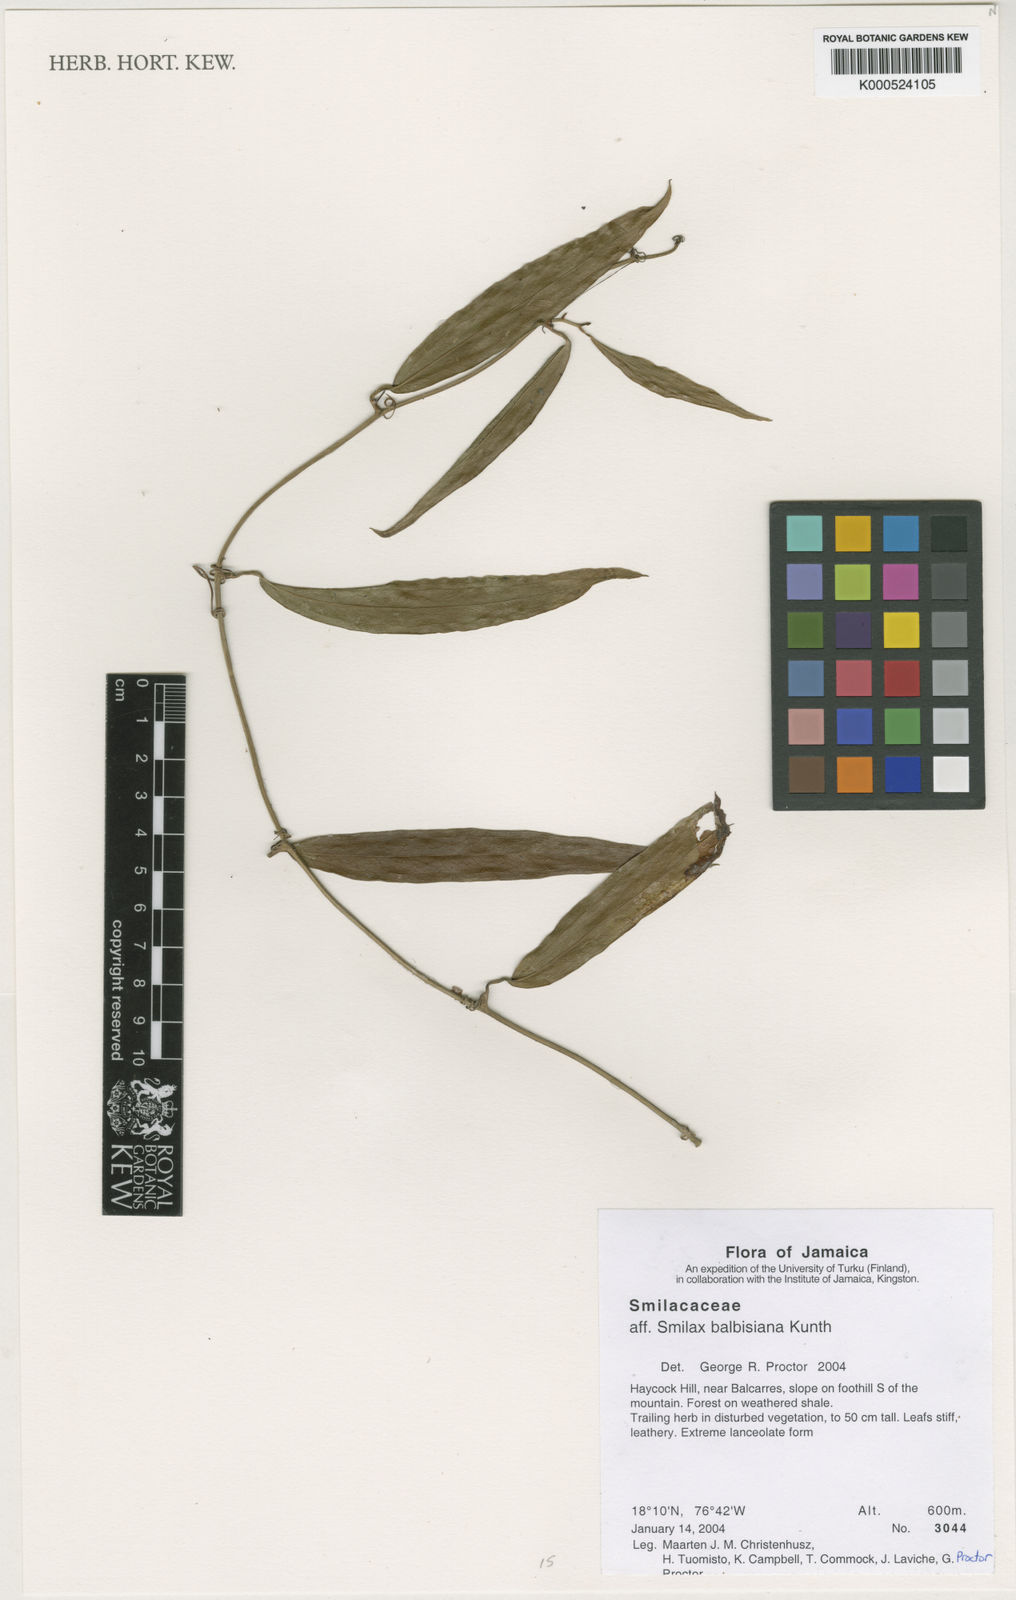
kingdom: Plantae
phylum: Tracheophyta
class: Liliopsida
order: Liliales
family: Smilacaceae
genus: Smilax
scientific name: Smilax domingensis
